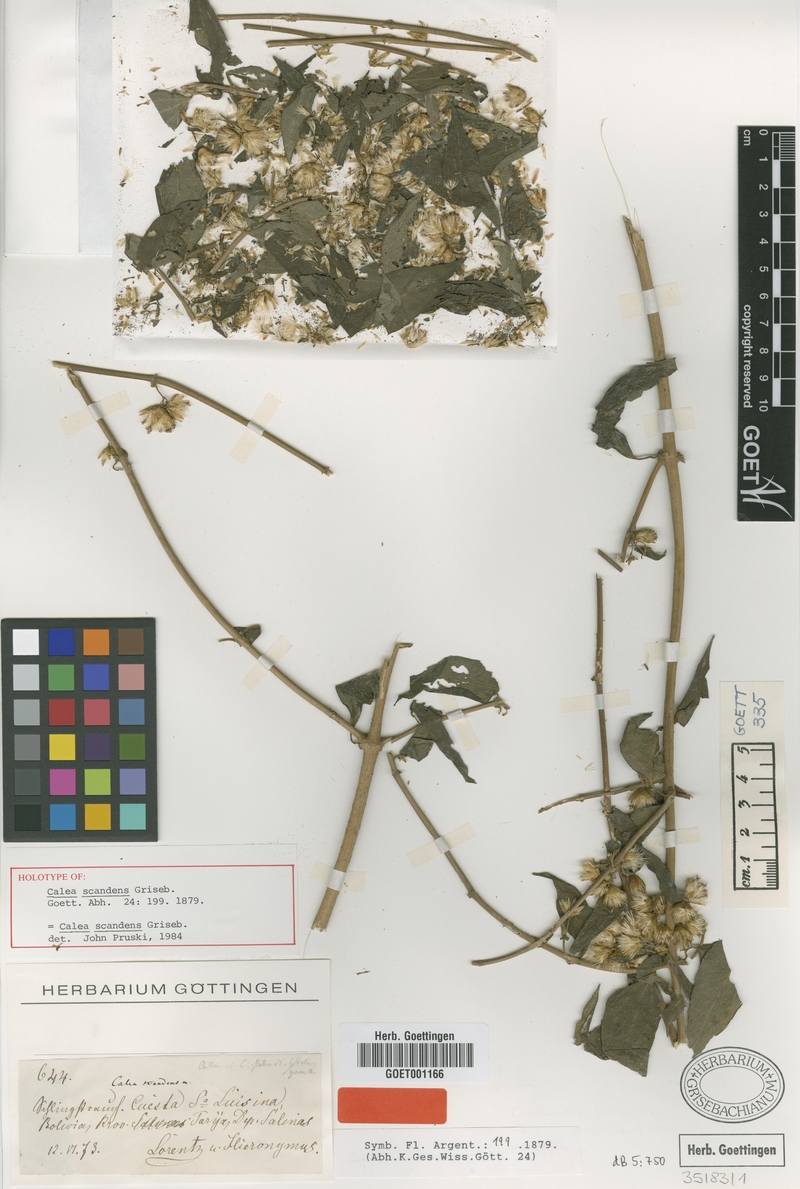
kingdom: Plantae
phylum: Tracheophyta
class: Magnoliopsida
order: Asterales
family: Asteraceae
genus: Calea
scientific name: Calea solidaginea
